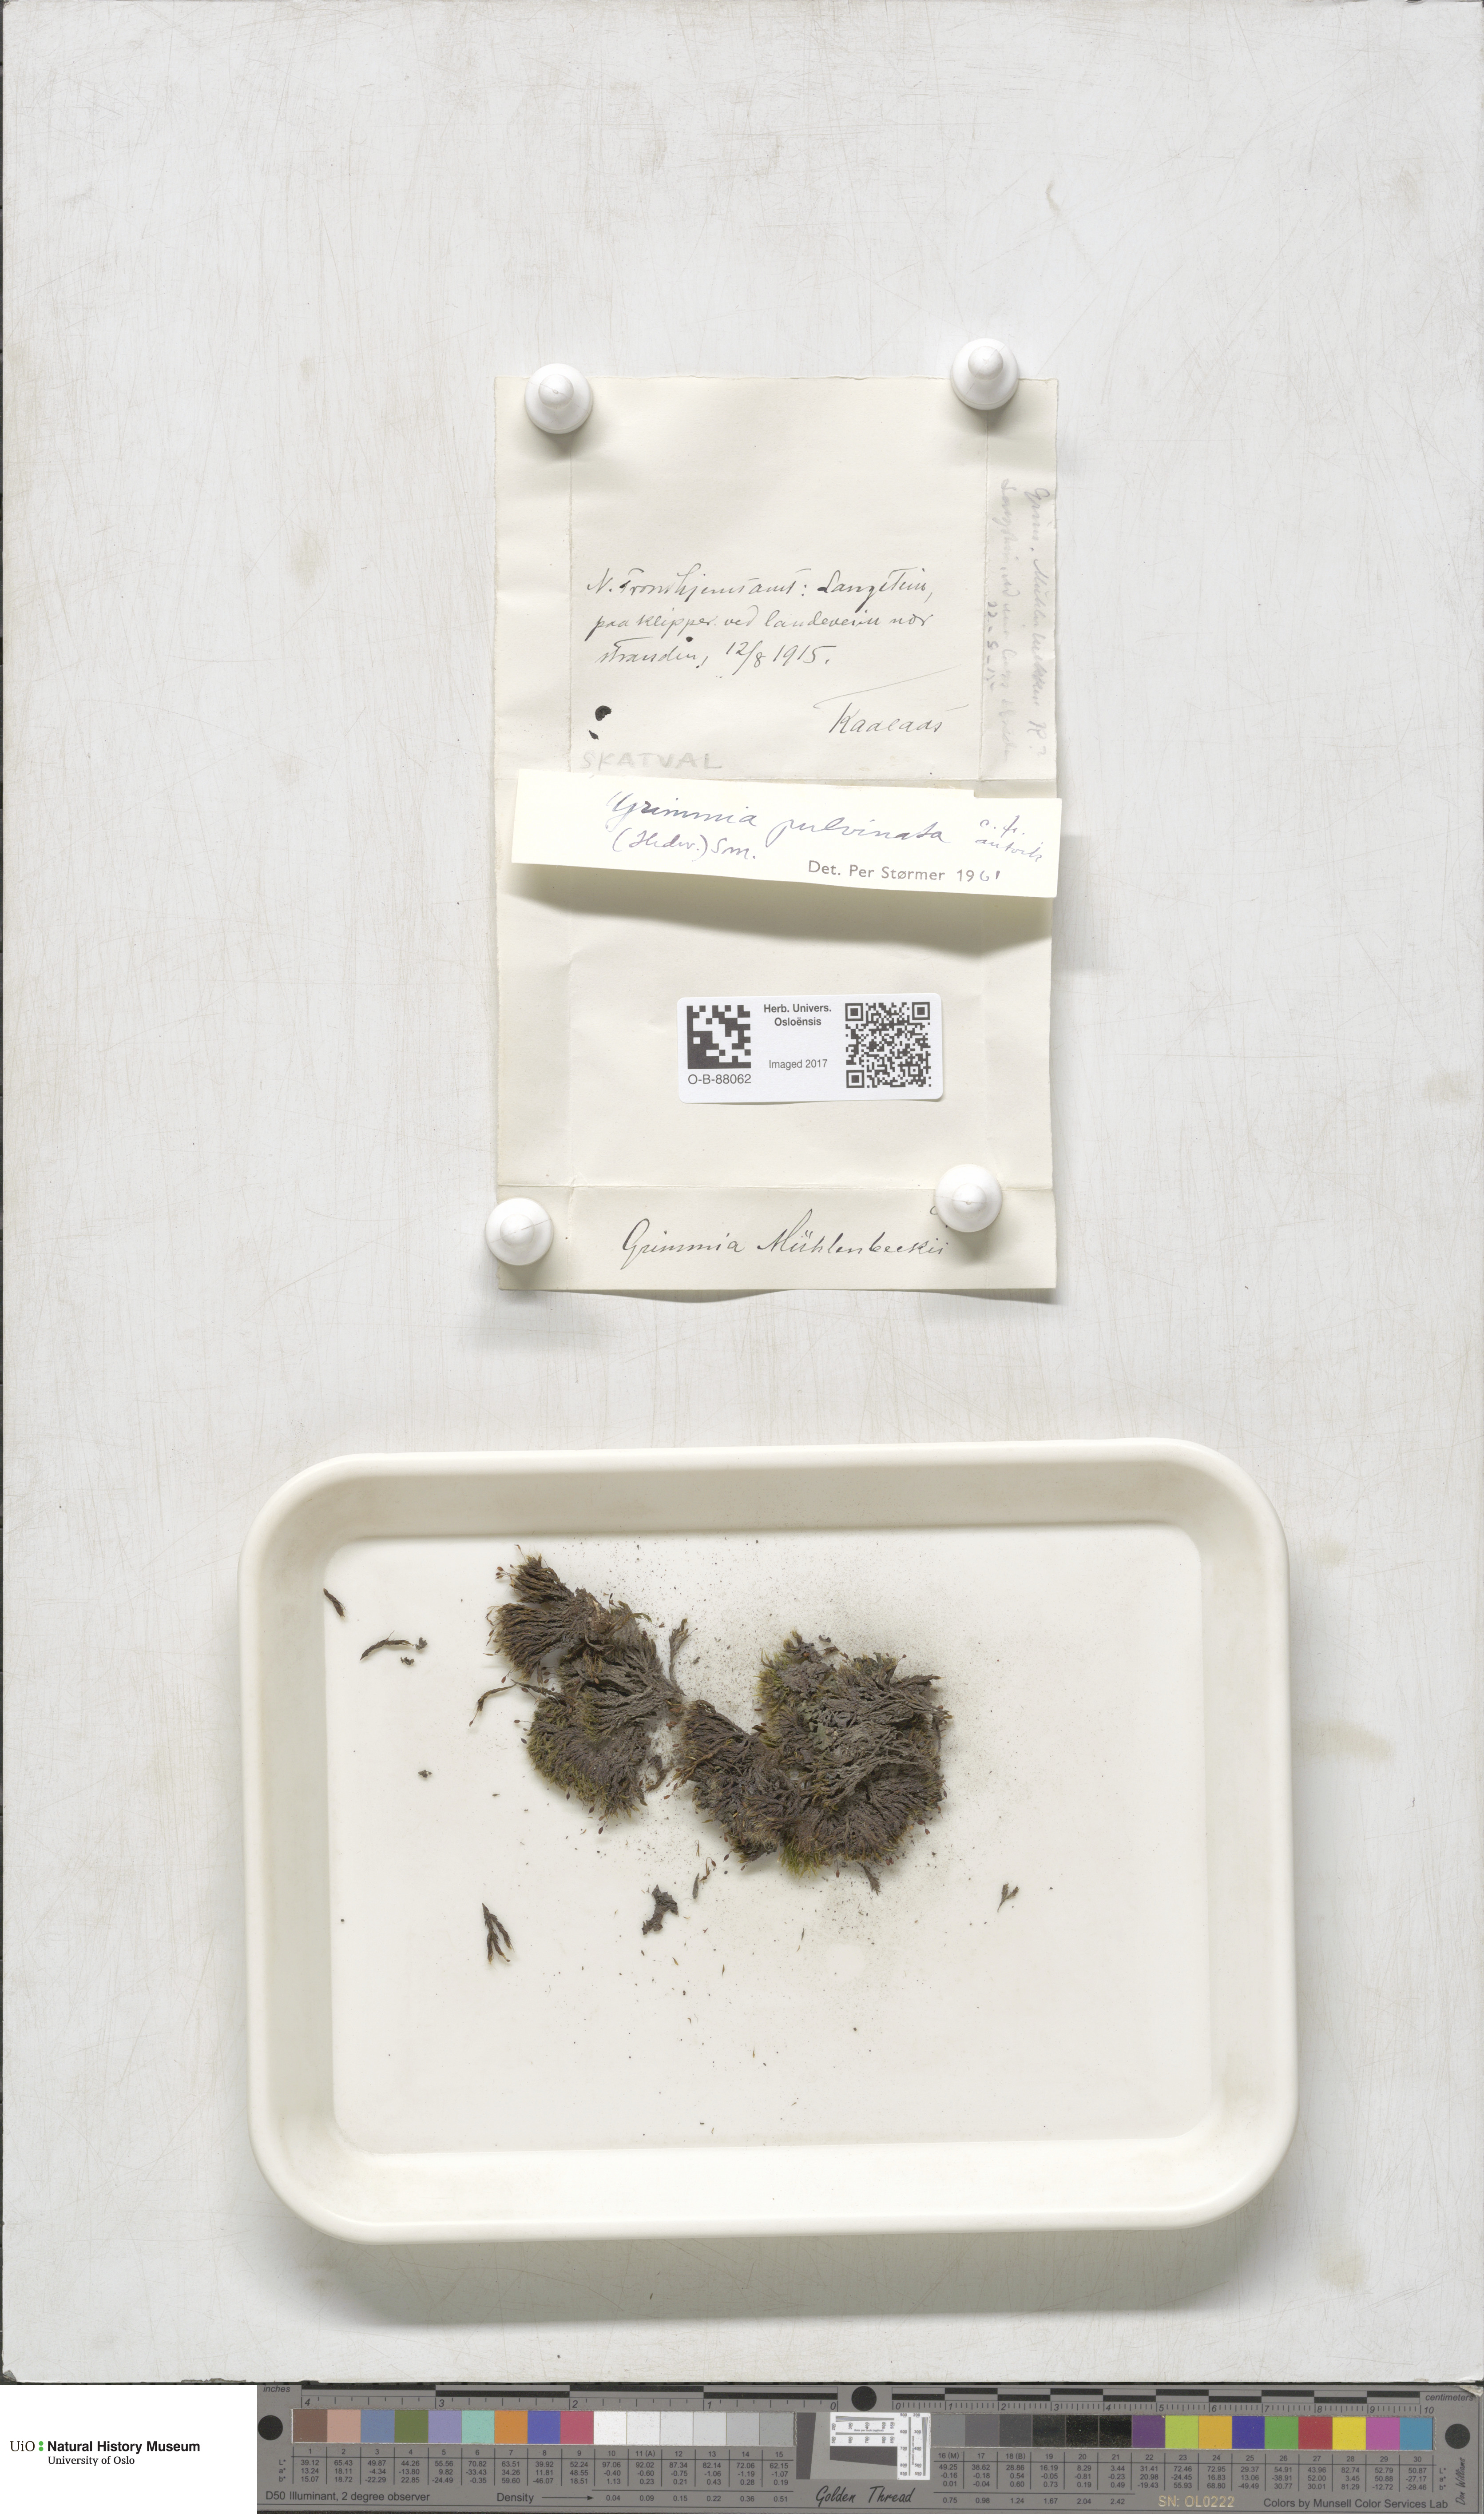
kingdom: Plantae
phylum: Bryophyta
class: Bryopsida
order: Grimmiales
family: Grimmiaceae
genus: Grimmia
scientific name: Grimmia pulvinata
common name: Grey-cushioned grimmia
